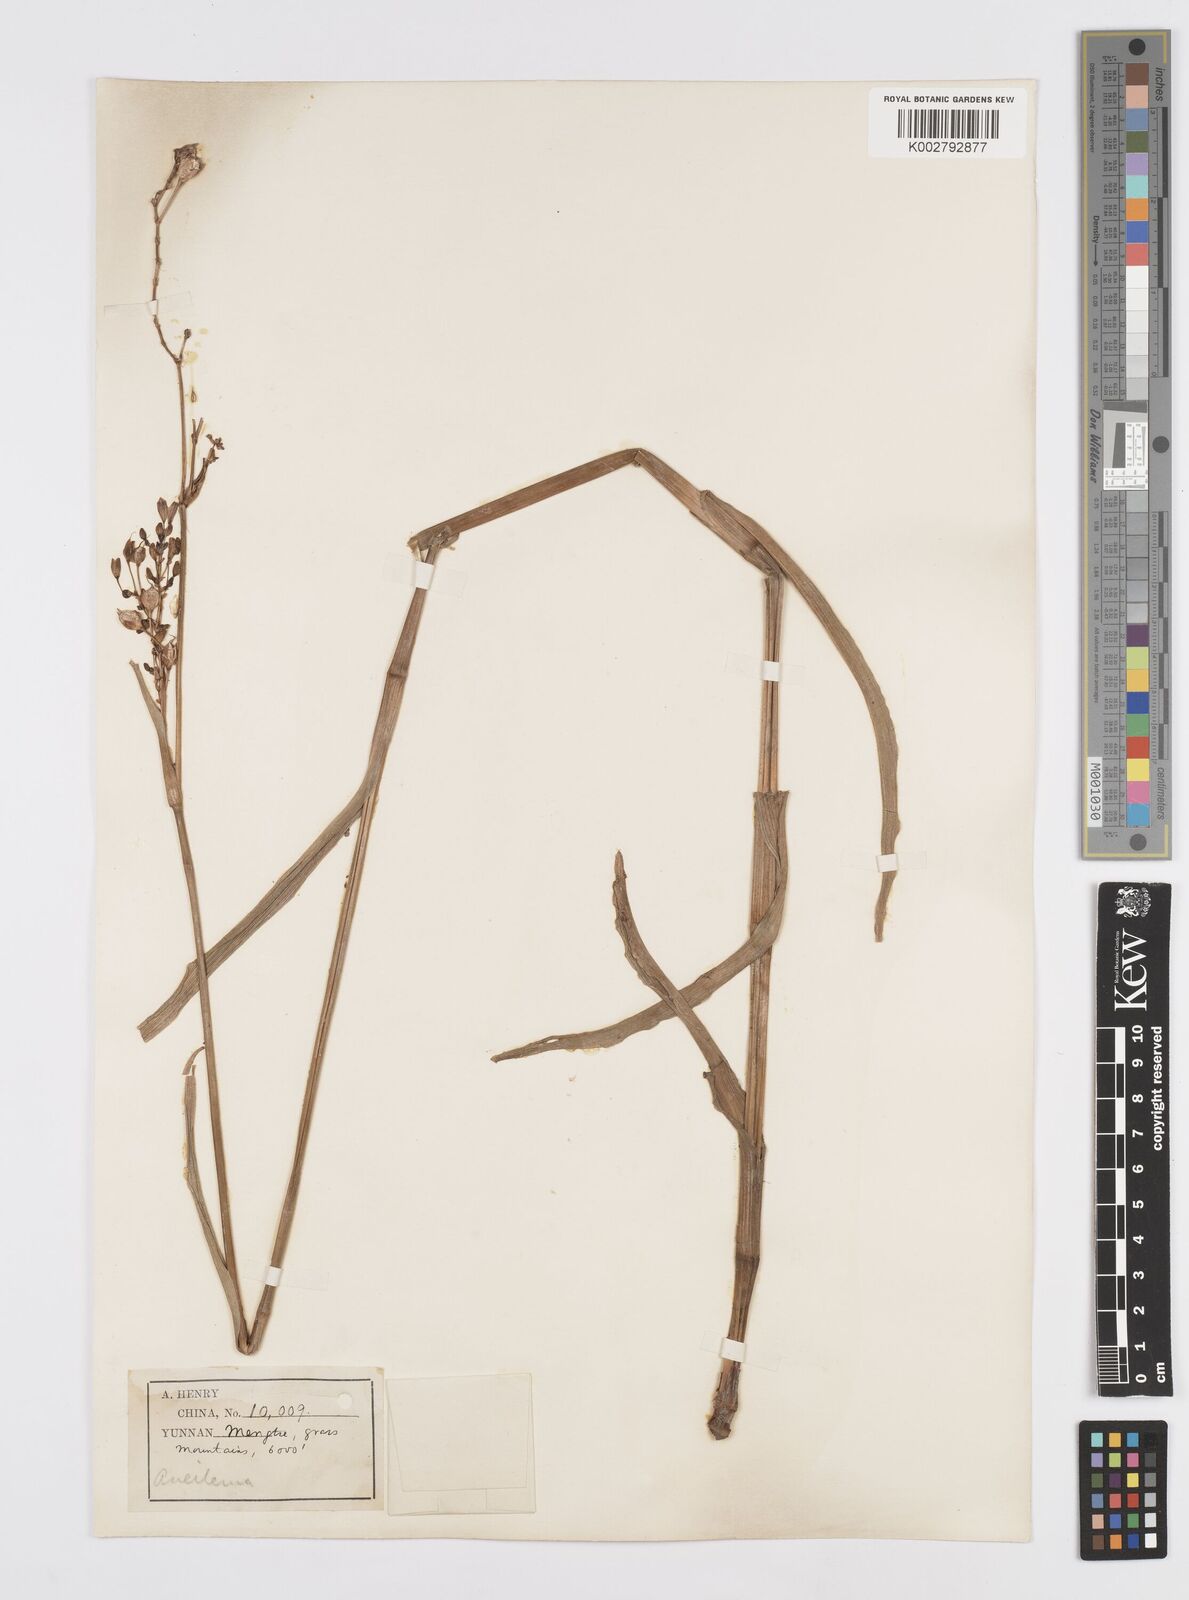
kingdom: Plantae
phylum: Tracheophyta
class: Liliopsida
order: Commelinales
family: Commelinaceae
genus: Murdannia
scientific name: Murdannia
